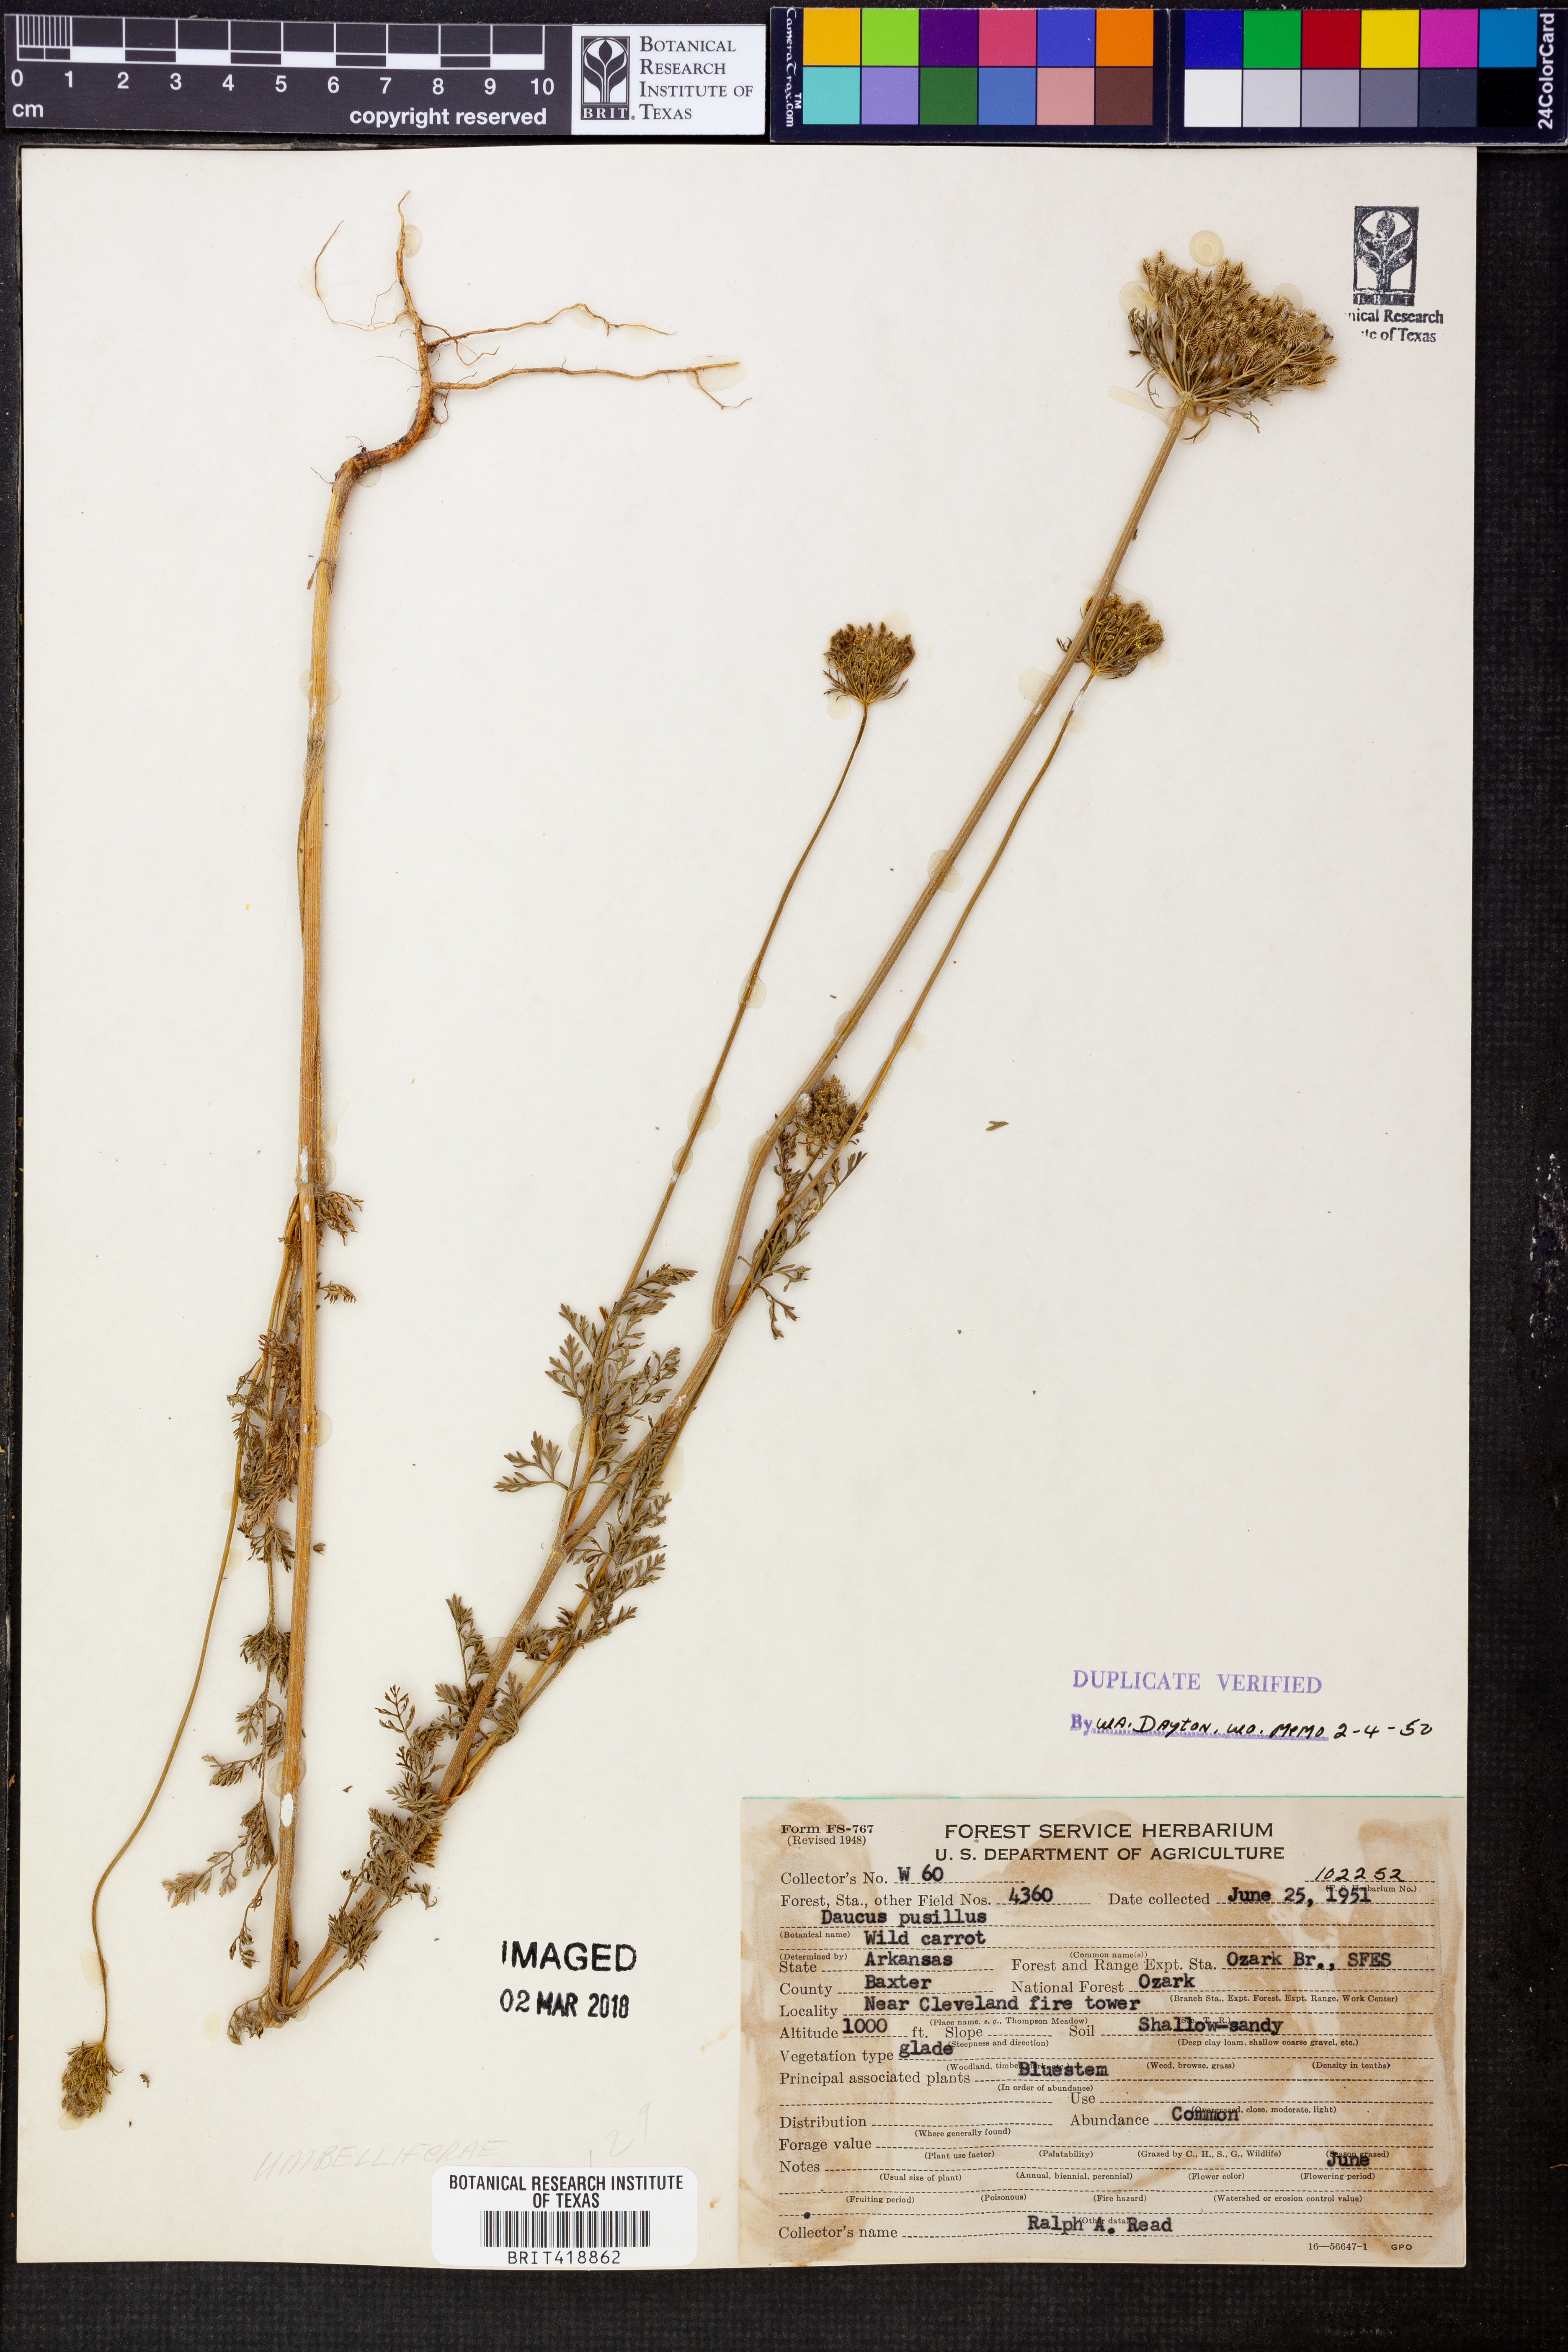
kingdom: Plantae
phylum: Tracheophyta
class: Magnoliopsida
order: Apiales
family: Apiaceae
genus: Daucus
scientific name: Daucus pusillus
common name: Southwest wild carrot
